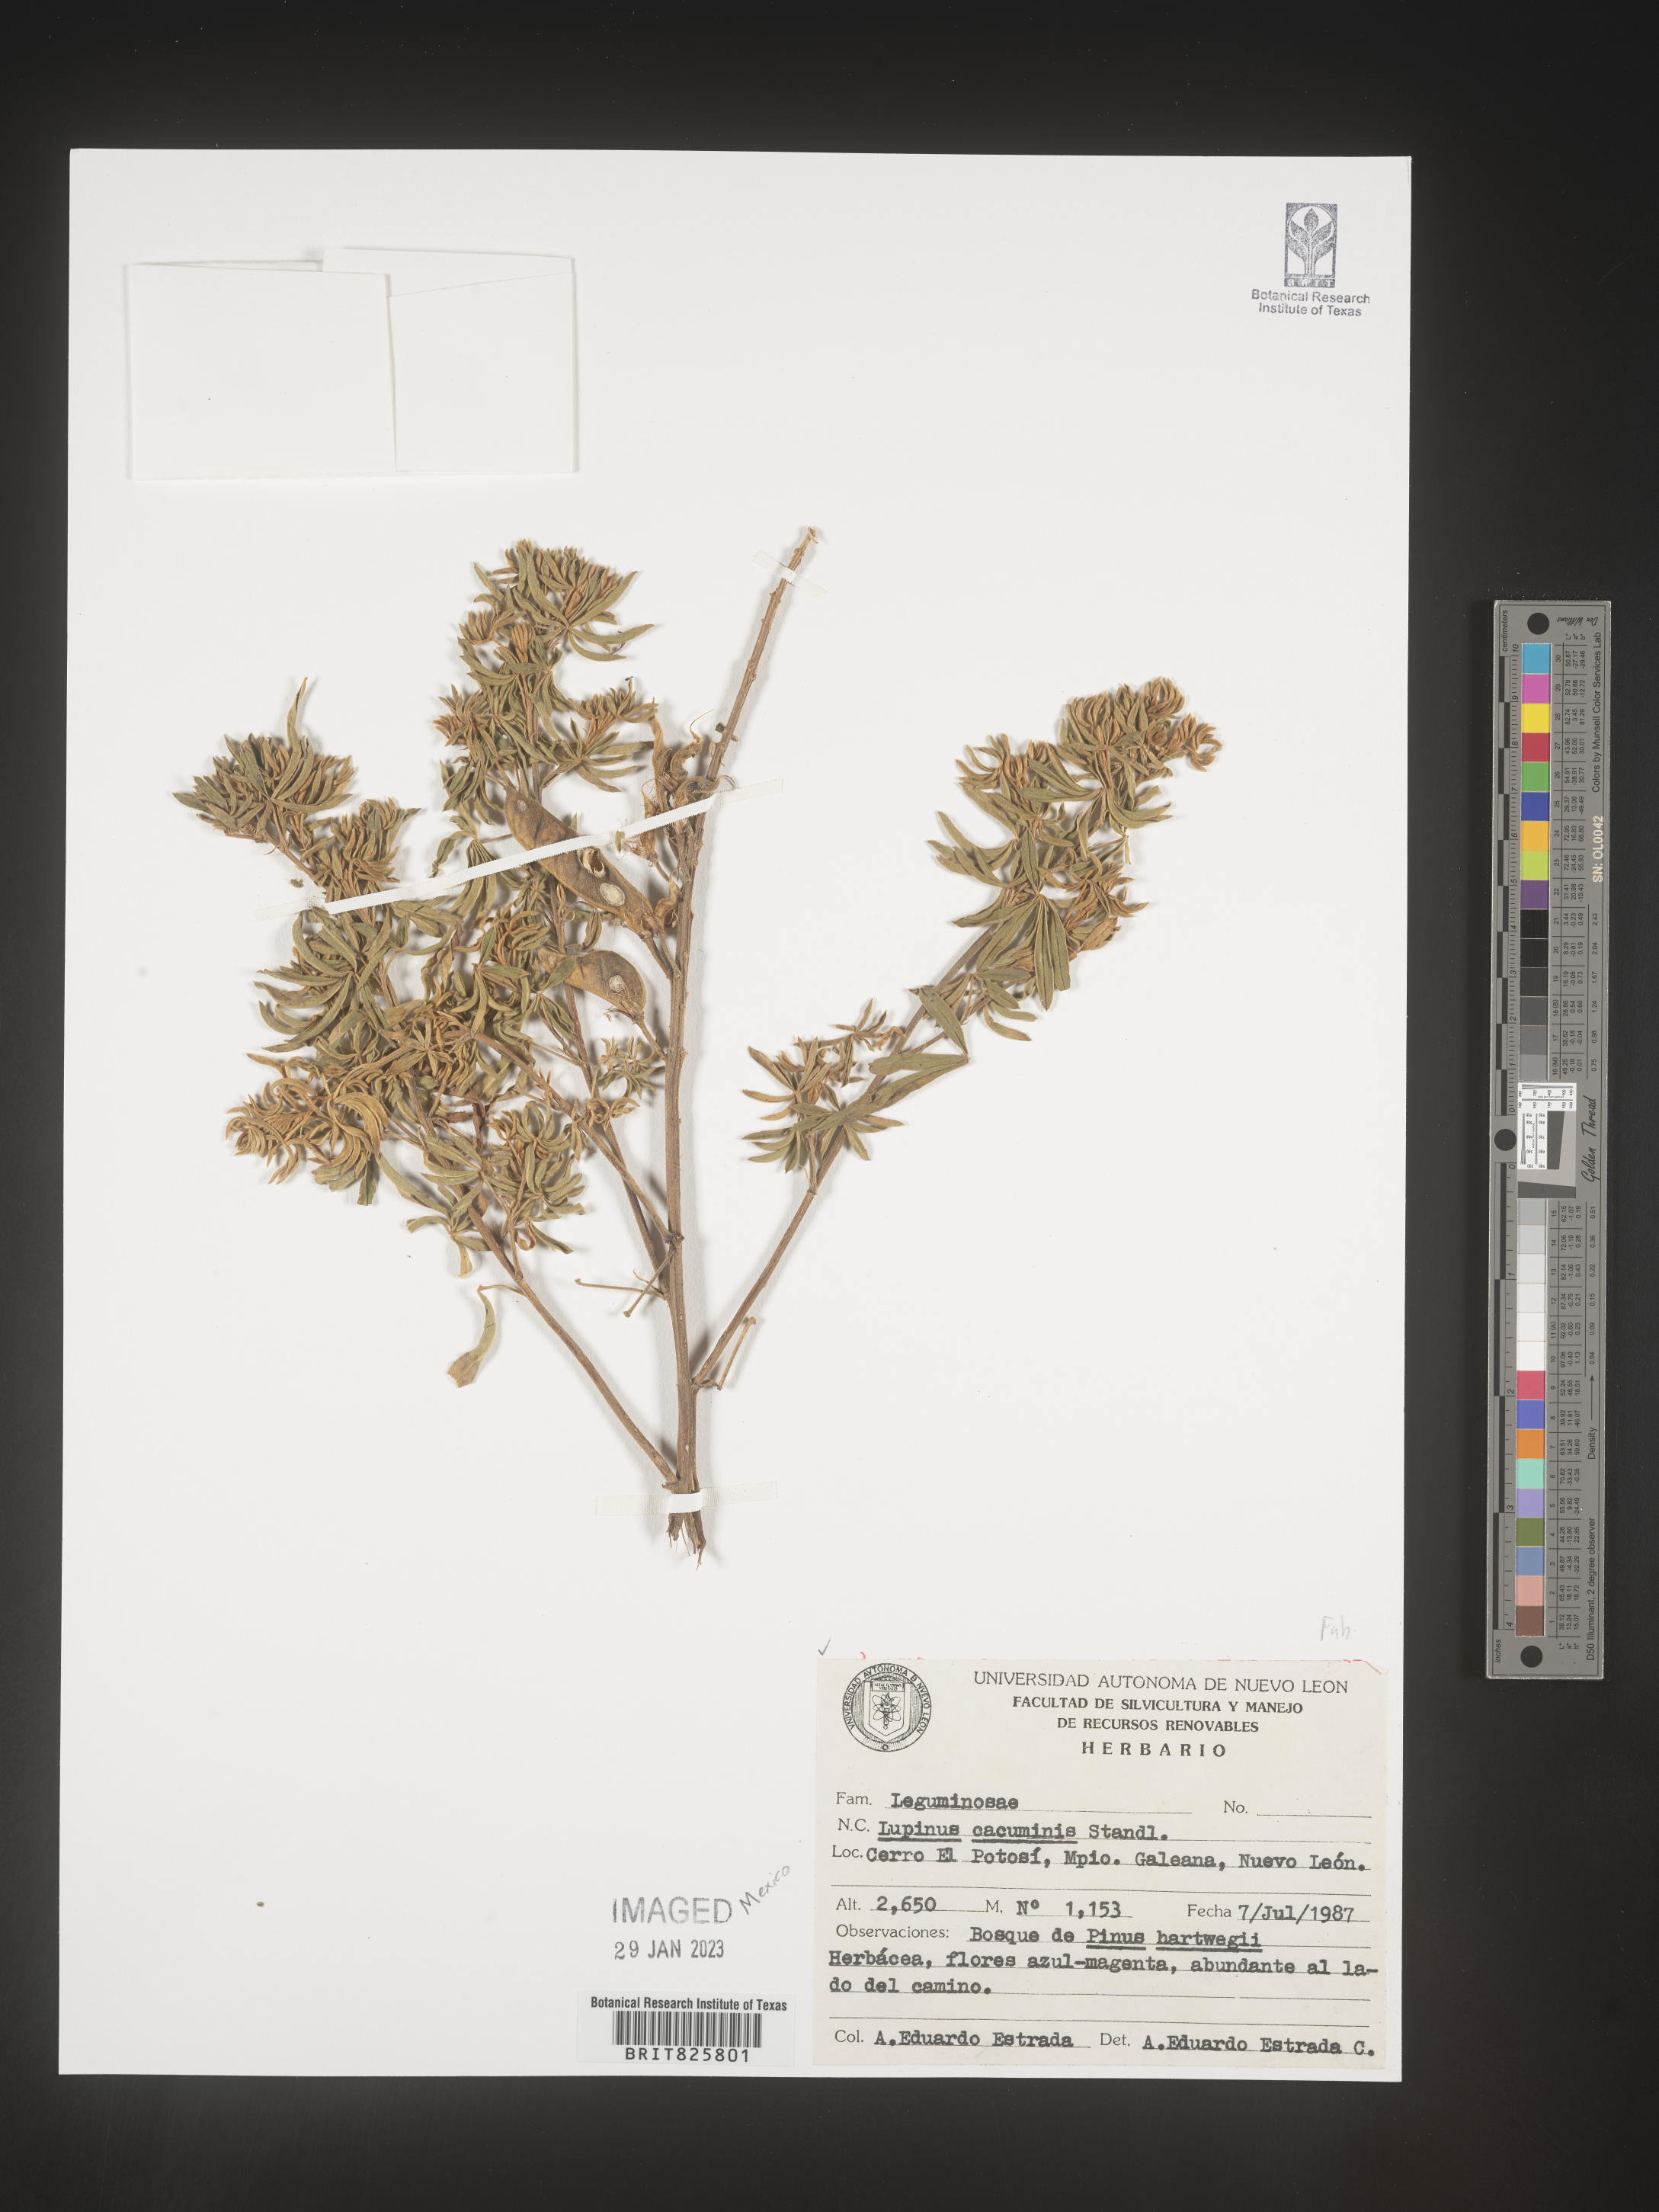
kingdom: Plantae
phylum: Tracheophyta
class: Magnoliopsida
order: Fabales
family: Fabaceae
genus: Lupinus
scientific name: Lupinus
